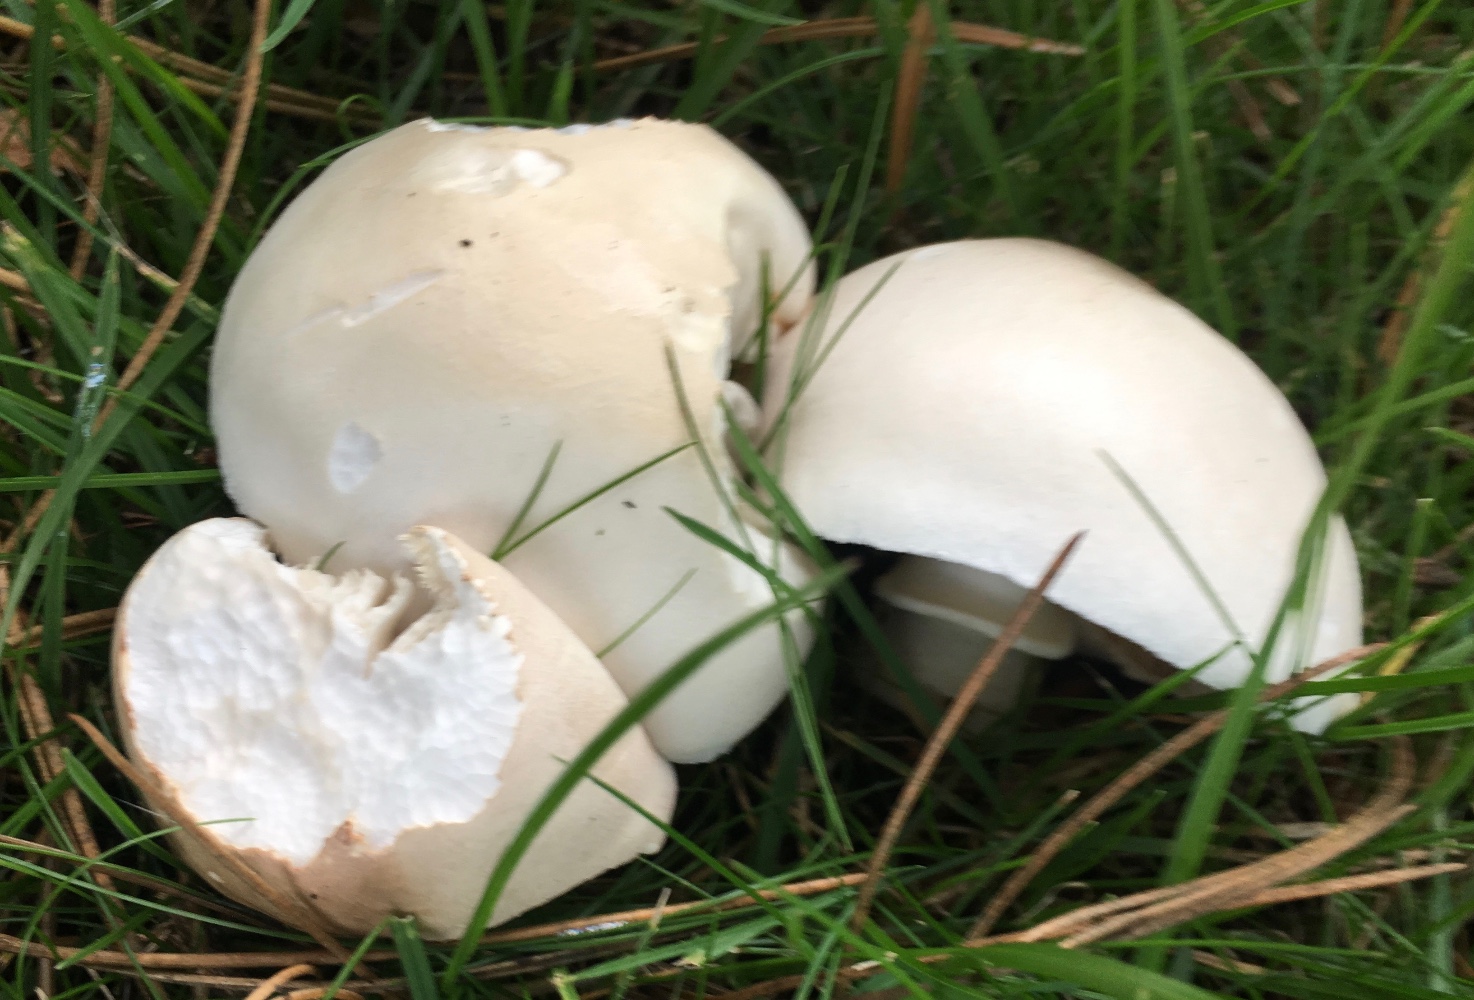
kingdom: Fungi
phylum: Basidiomycota
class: Agaricomycetes
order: Agaricales
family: Agaricaceae
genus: Leucoagaricus
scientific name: Leucoagaricus leucothites
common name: rosabladet silkehat
